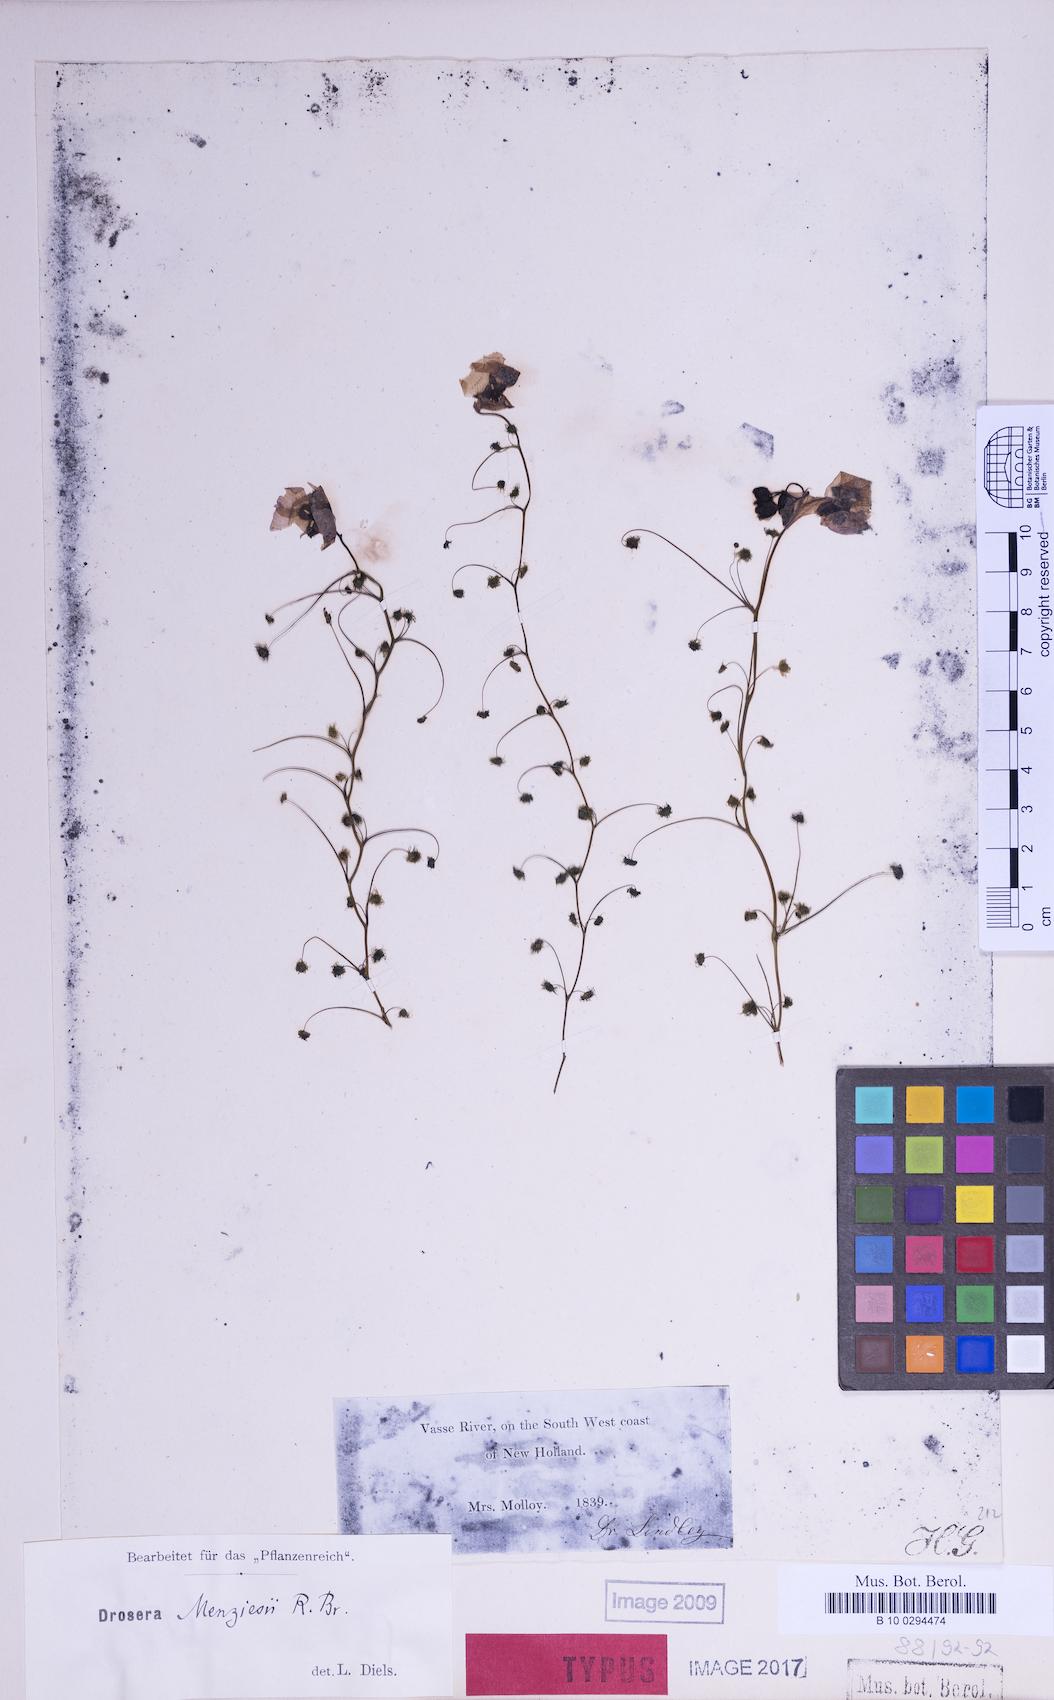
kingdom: Plantae
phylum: Tracheophyta
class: Magnoliopsida
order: Caryophyllales
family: Droseraceae
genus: Drosera
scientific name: Drosera menziesii
